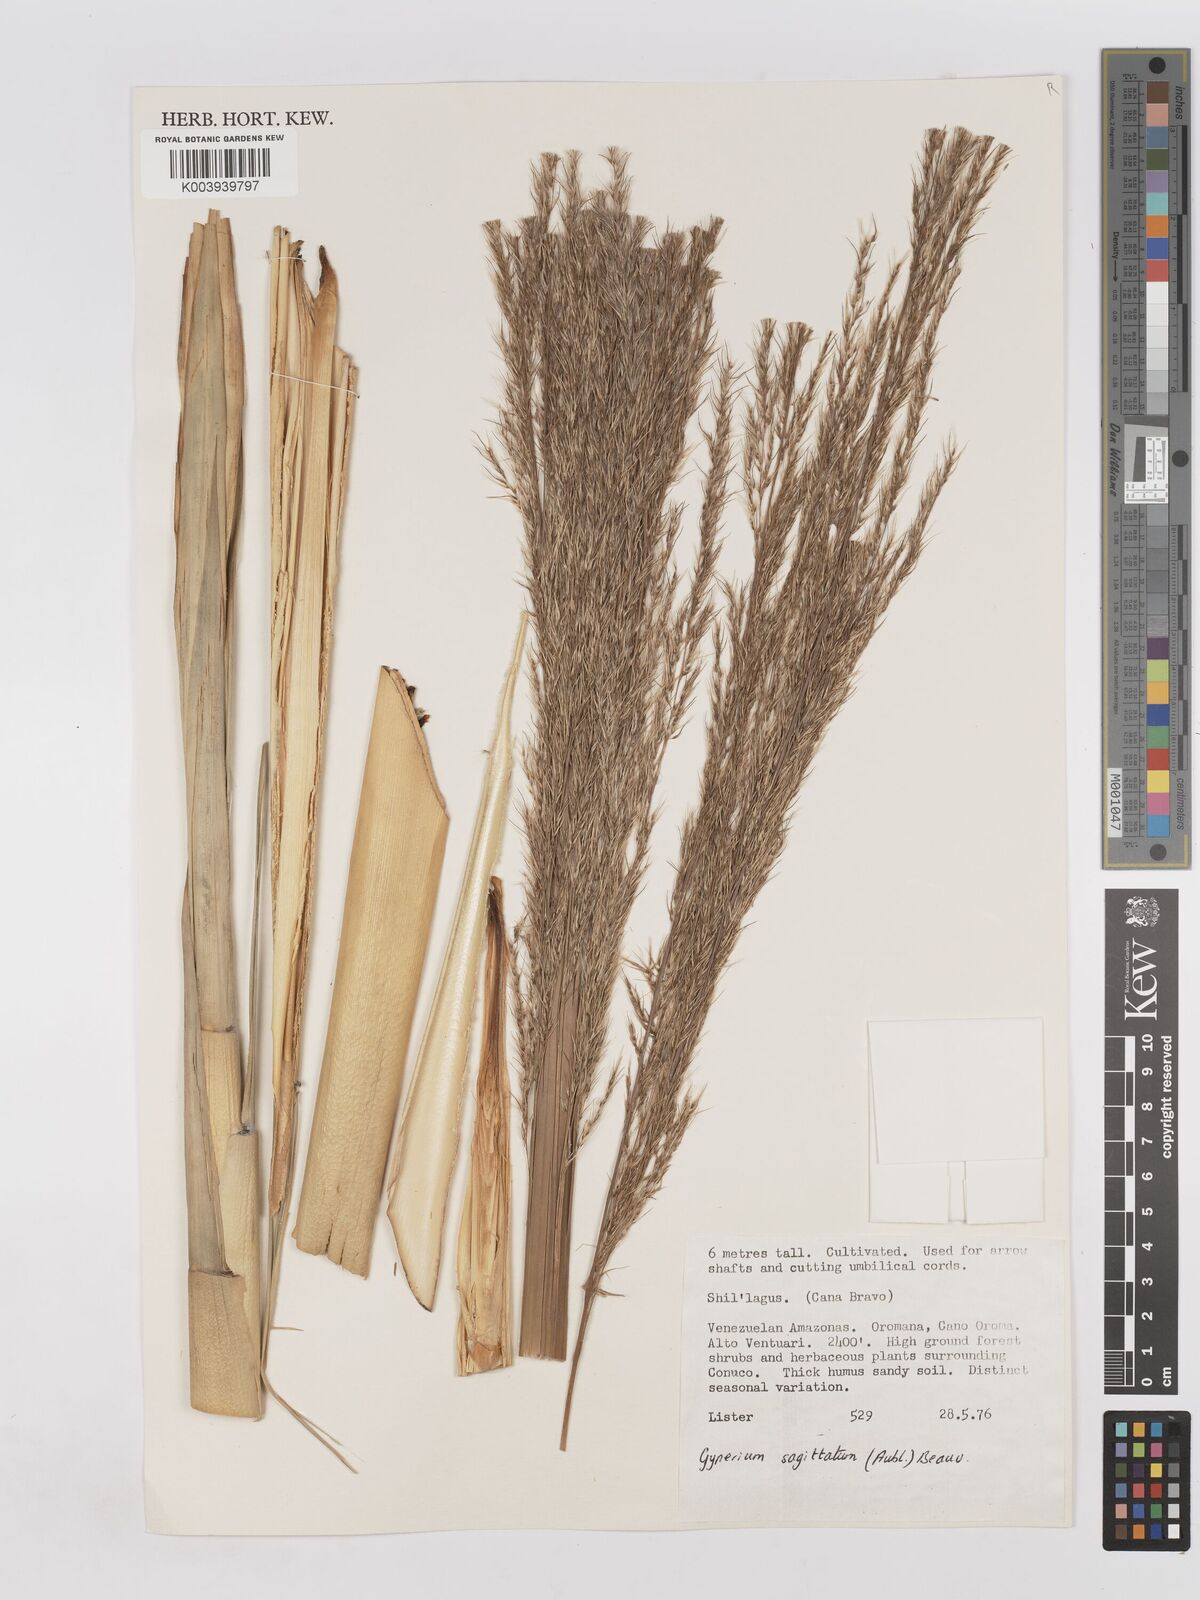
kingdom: Plantae
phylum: Tracheophyta
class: Liliopsida
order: Poales
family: Poaceae
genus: Gynerium
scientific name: Gynerium sagittatum
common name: Wild cane
